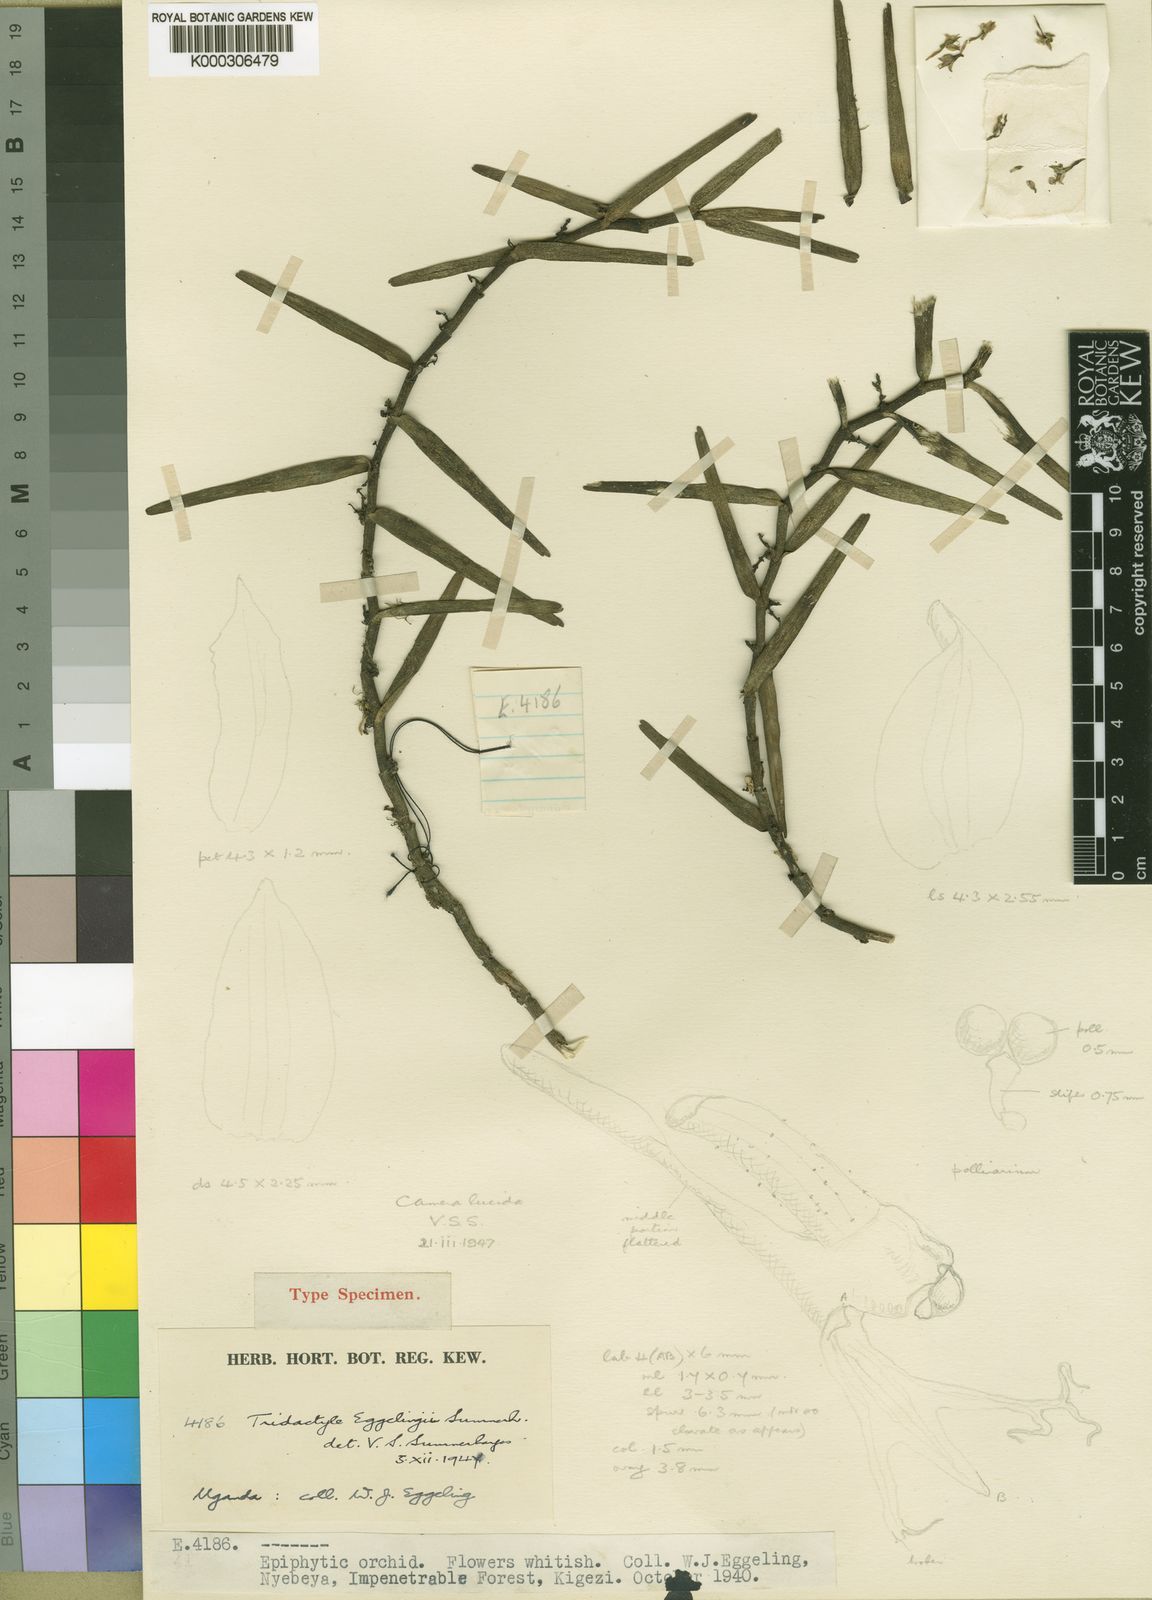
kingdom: Plantae
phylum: Tracheophyta
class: Liliopsida
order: Asparagales
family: Orchidaceae
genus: Tridactyle
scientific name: Tridactyle eggelingii
